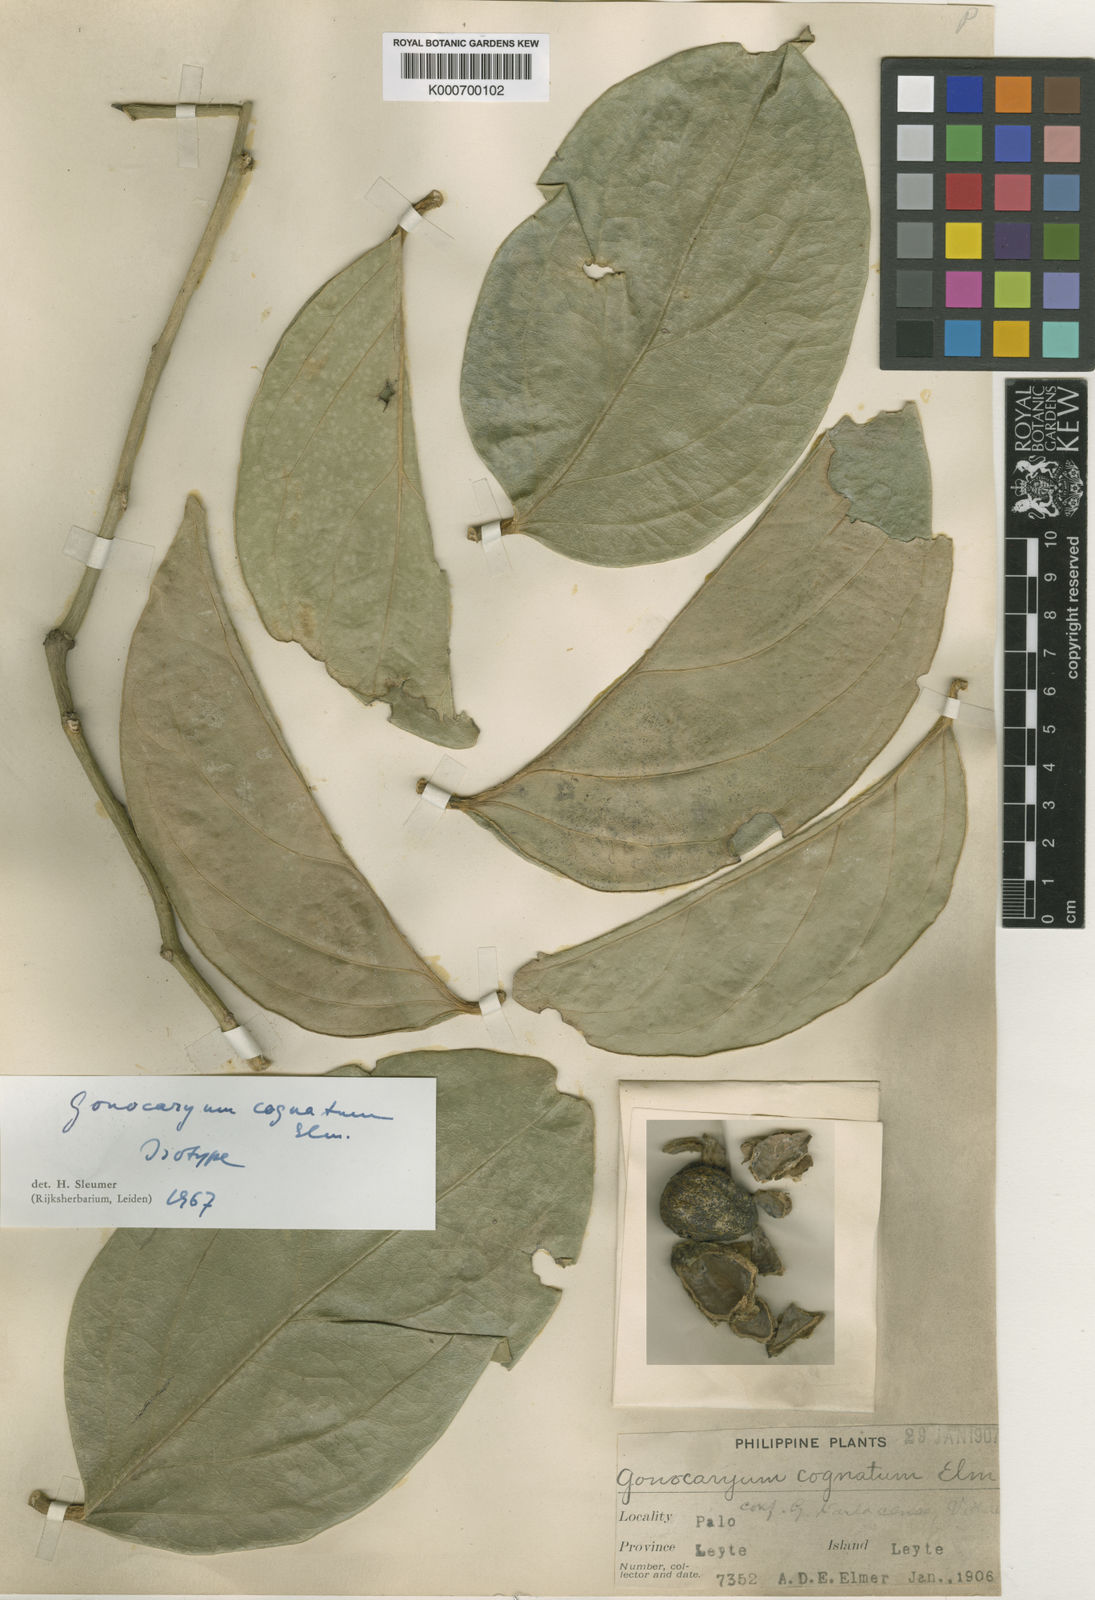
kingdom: Plantae
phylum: Tracheophyta
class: Magnoliopsida
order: Cardiopteridales
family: Cardiopteridaceae
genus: Gonocaryum
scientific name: Gonocaryum cognatum
